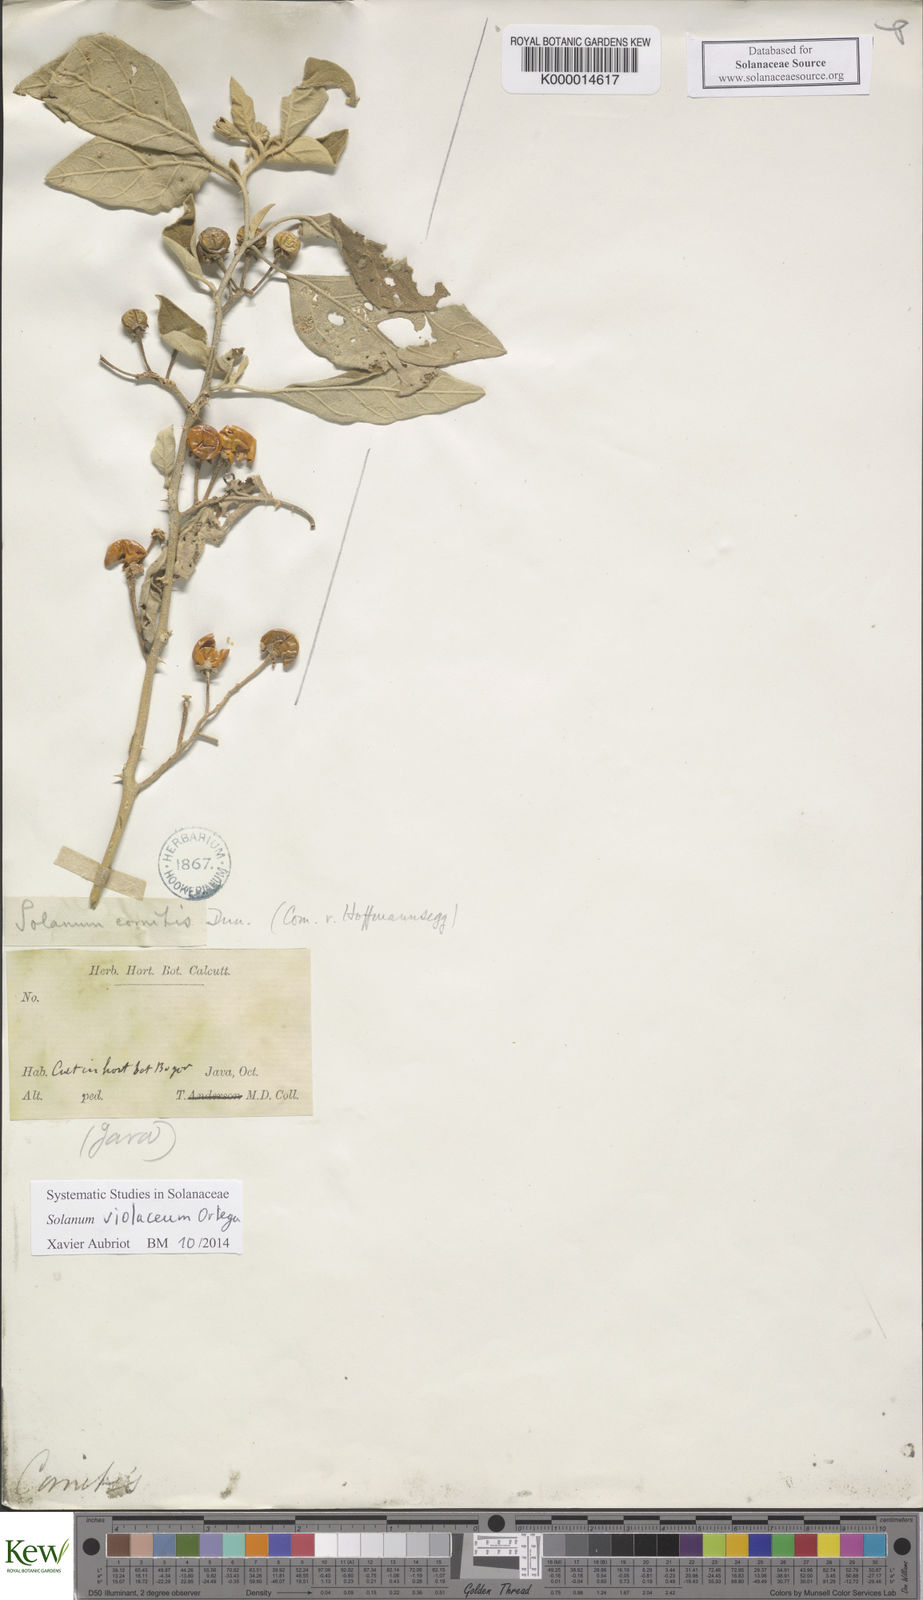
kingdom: Plantae
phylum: Tracheophyta
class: Magnoliopsida
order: Solanales
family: Solanaceae
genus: Solanum
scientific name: Solanum violaceum
